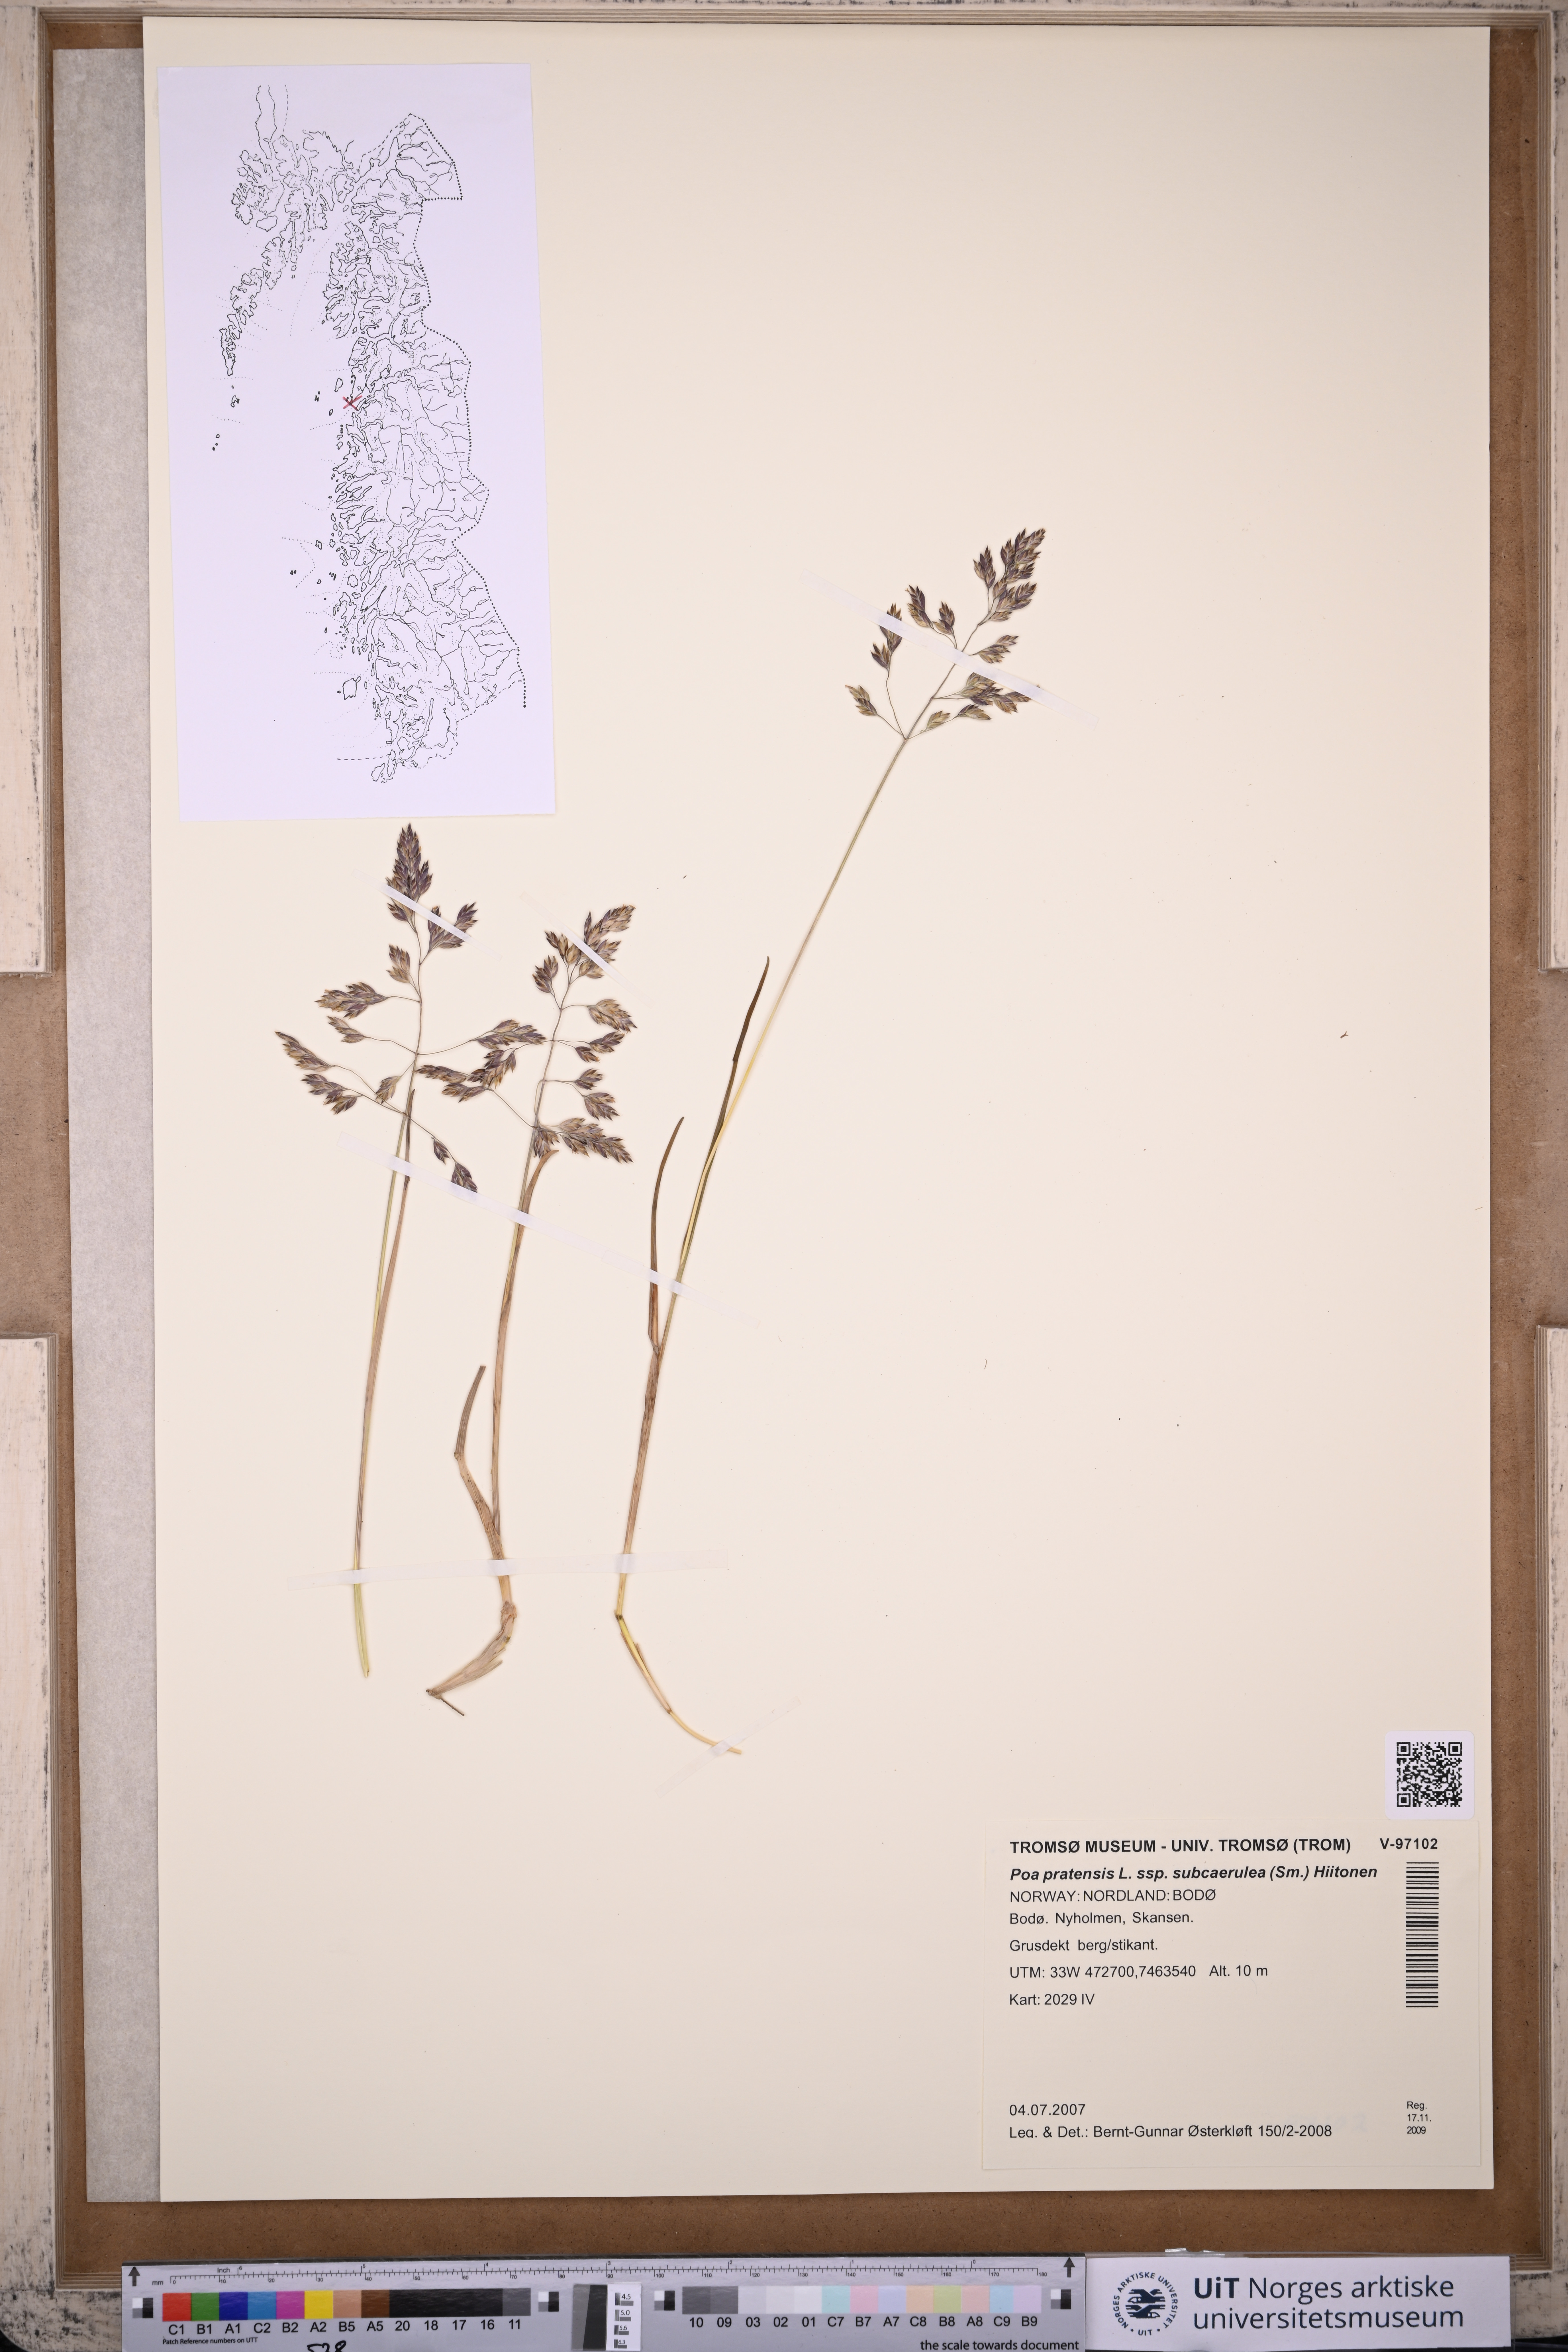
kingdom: Plantae
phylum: Tracheophyta
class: Liliopsida
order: Poales
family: Poaceae
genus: Poa
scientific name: Poa humilis
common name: Spreading meadow-grass
